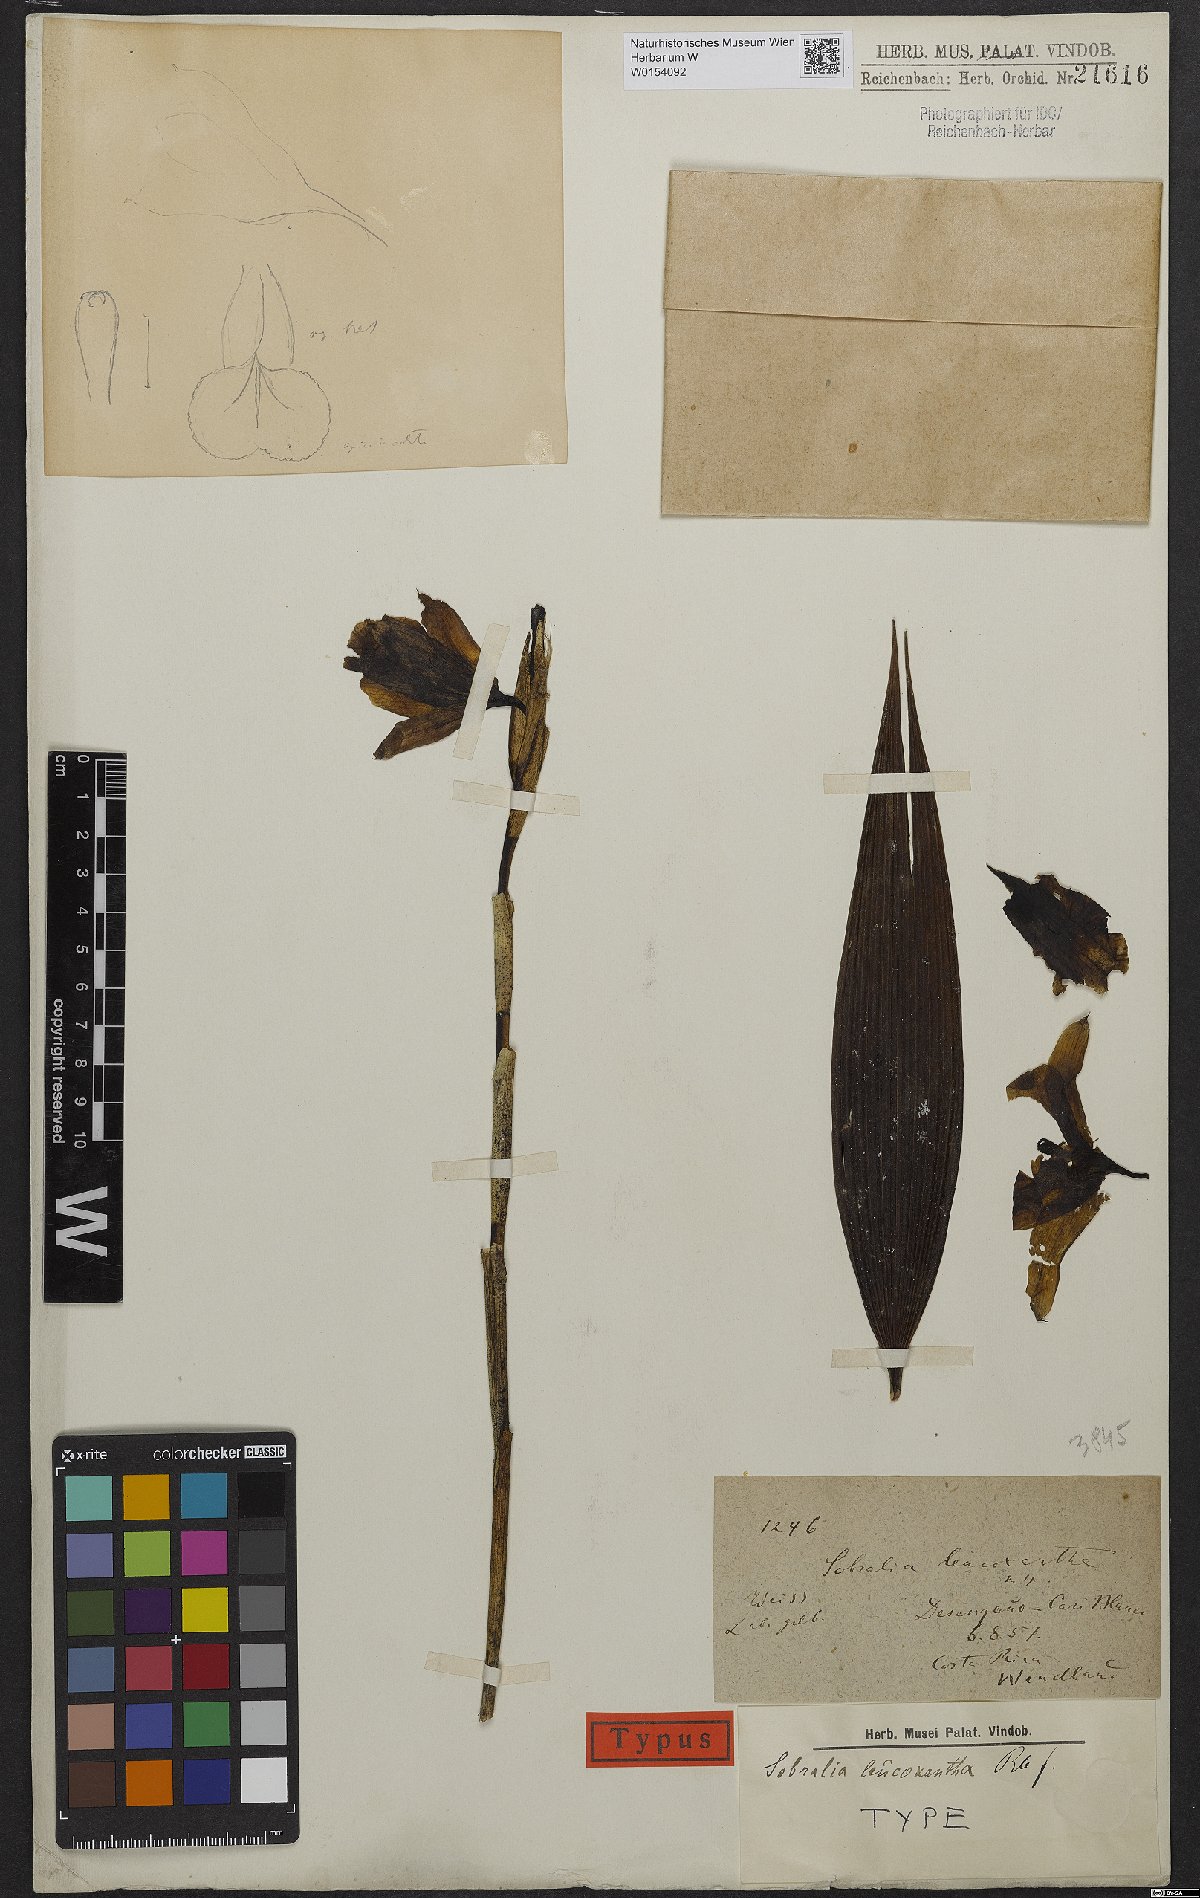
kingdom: Plantae
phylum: Tracheophyta
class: Liliopsida
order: Asparagales
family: Orchidaceae
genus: Sobralia
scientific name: Sobralia leucoxantha
